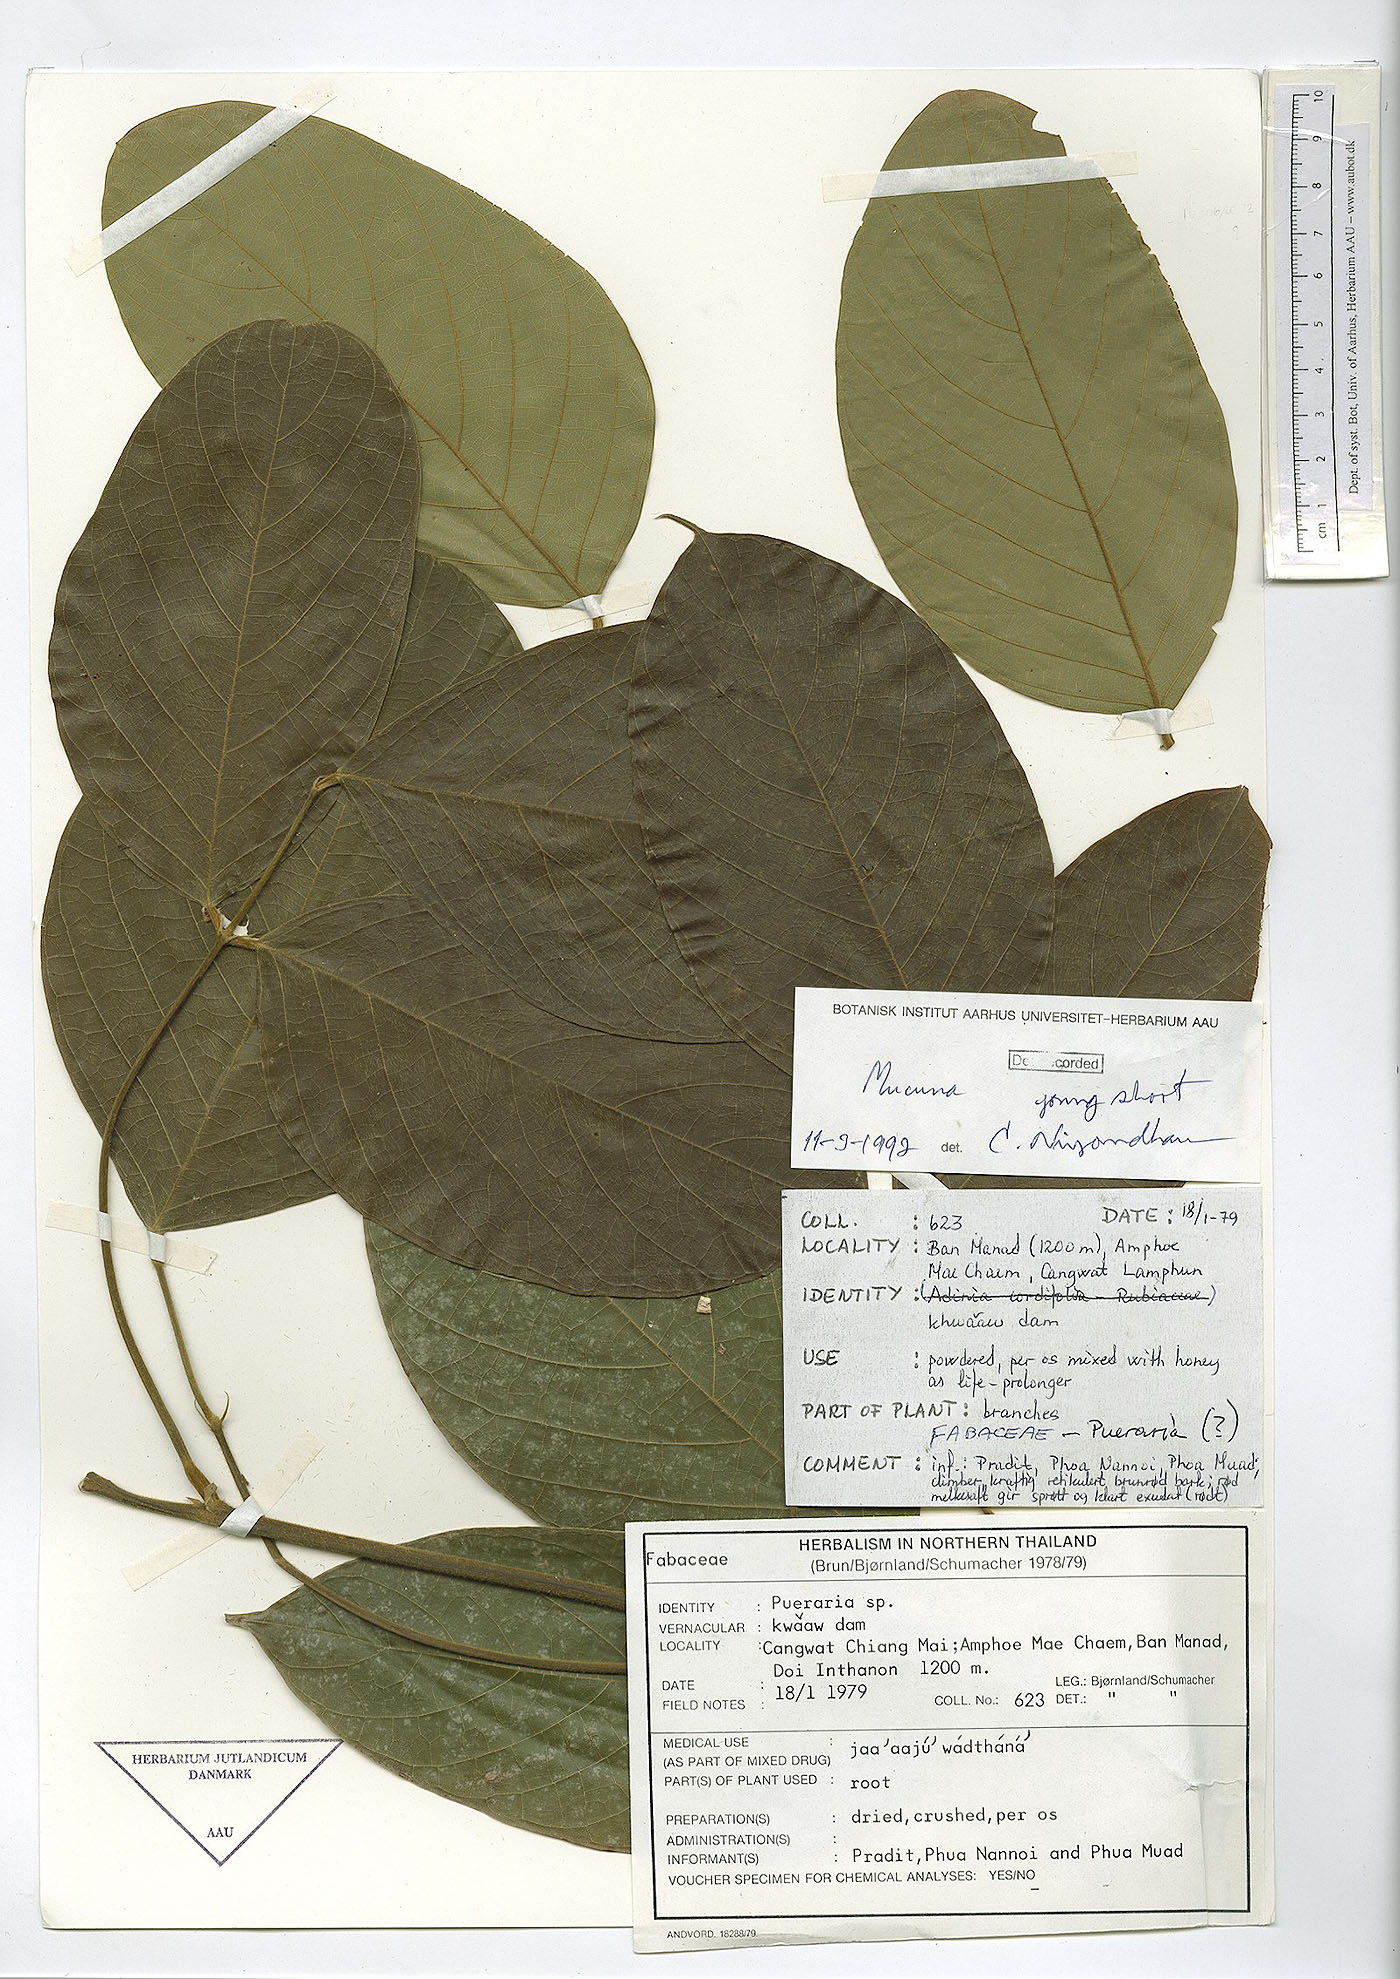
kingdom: Plantae
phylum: Tracheophyta
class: Magnoliopsida
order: Fabales
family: Fabaceae
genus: Spatholobus
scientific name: Spatholobus parviflorus
